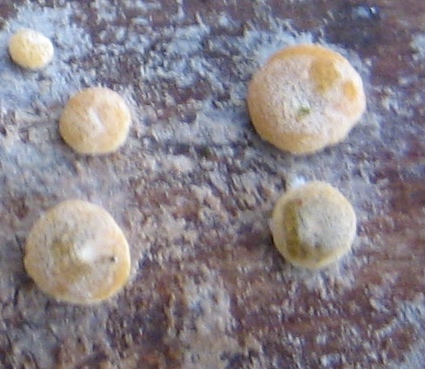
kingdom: Fungi
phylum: Ascomycota
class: Sordariomycetes
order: Hypocreales
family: Hypocreaceae
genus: Trichoderma
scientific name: Trichoderma aureoviride
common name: æggegul kødkerne
